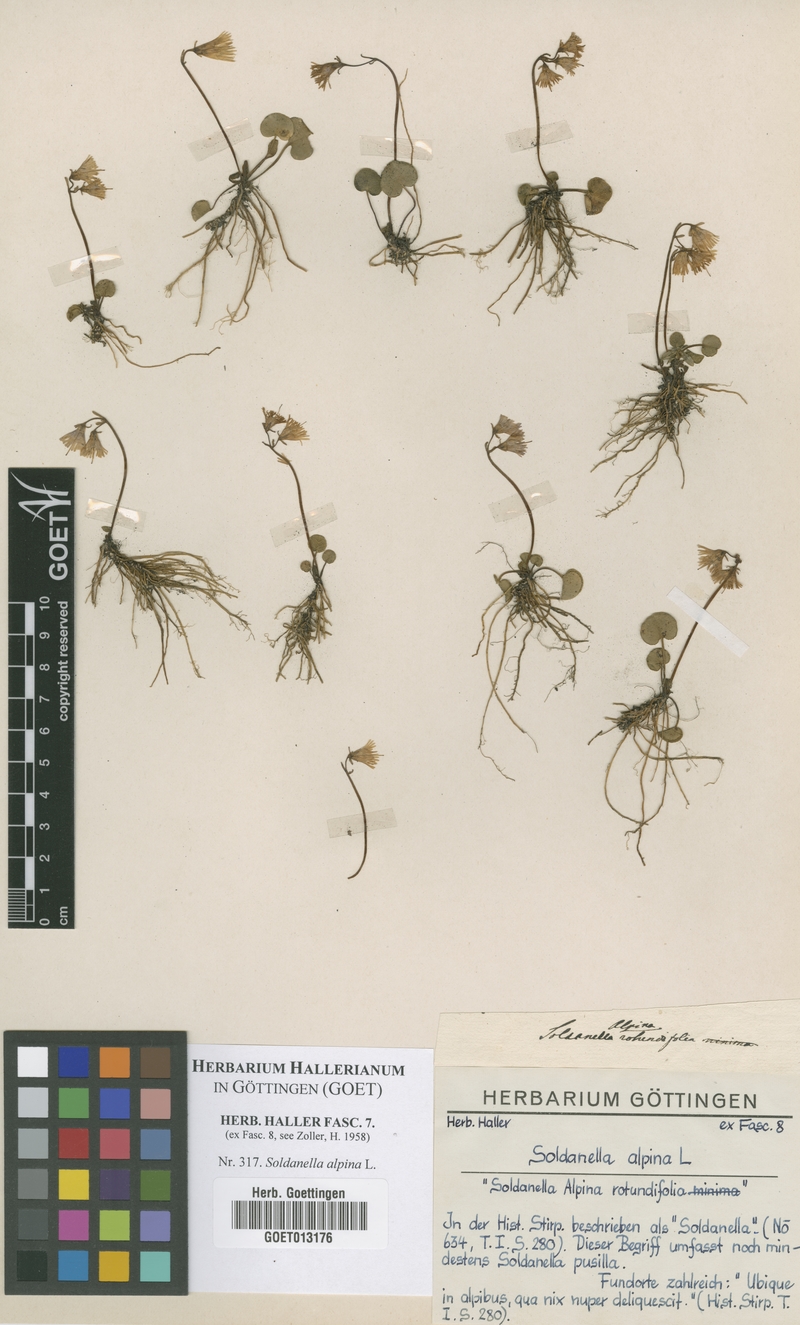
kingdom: Plantae
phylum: Tracheophyta
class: Magnoliopsida
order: Ericales
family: Primulaceae
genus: Soldanella
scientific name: Soldanella alpina
